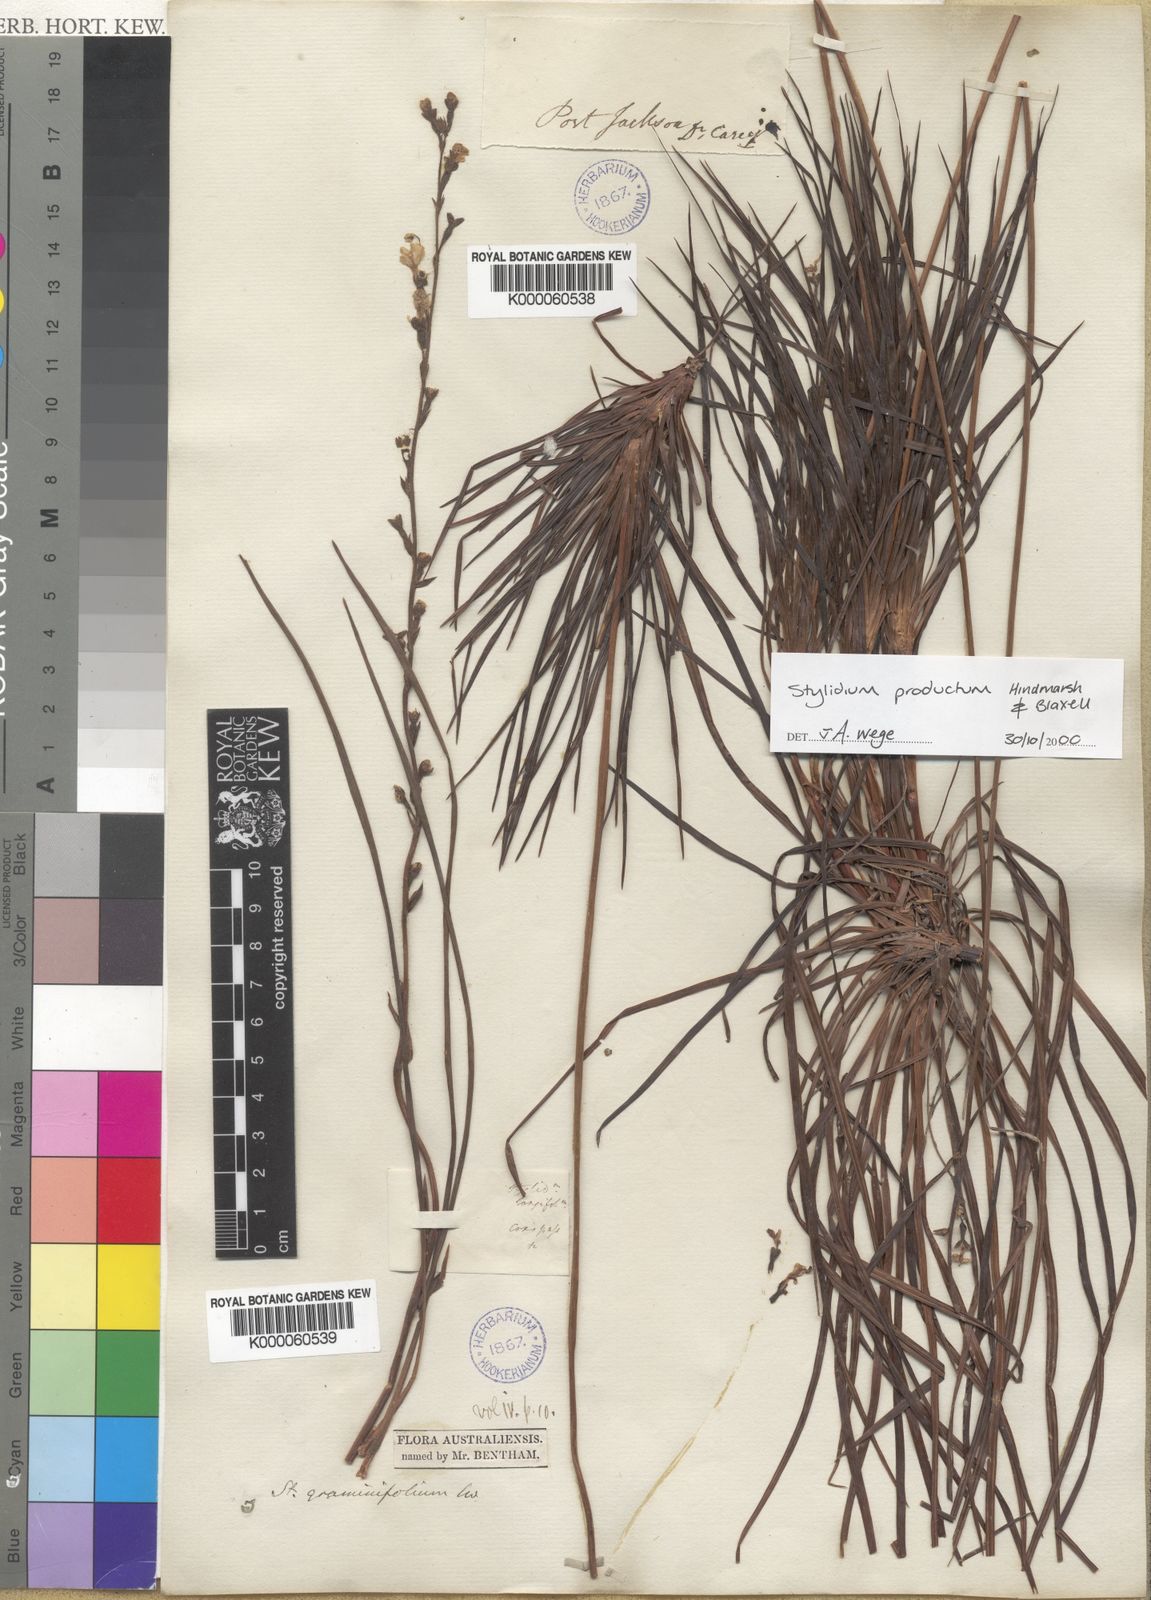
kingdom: Plantae
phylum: Tracheophyta
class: Magnoliopsida
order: Asterales
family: Stylidiaceae
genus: Stylidium
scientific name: Stylidium productum
